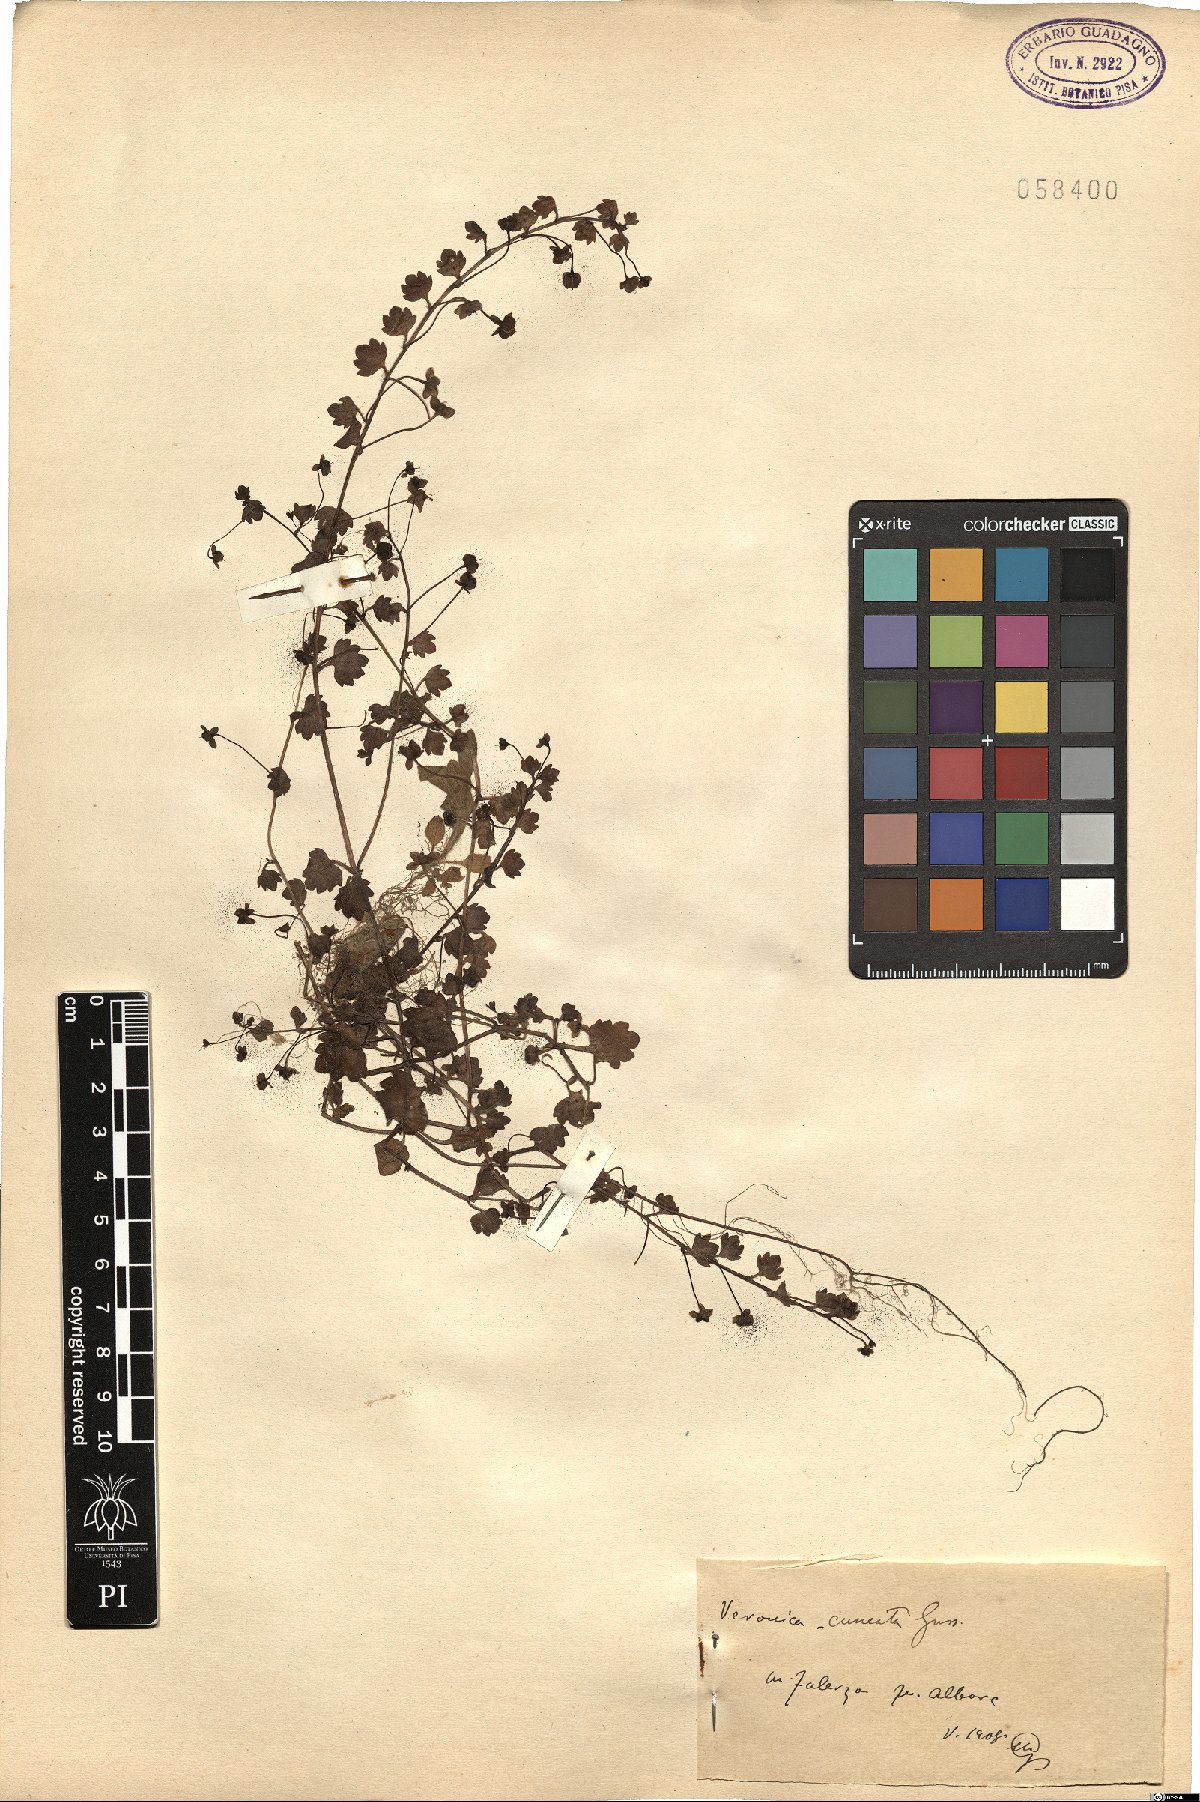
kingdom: Plantae
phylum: Tracheophyta
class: Magnoliopsida
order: Lamiales
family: Plantaginaceae
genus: Veronica
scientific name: Veronica cymbalaria
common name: Pale speedwell
